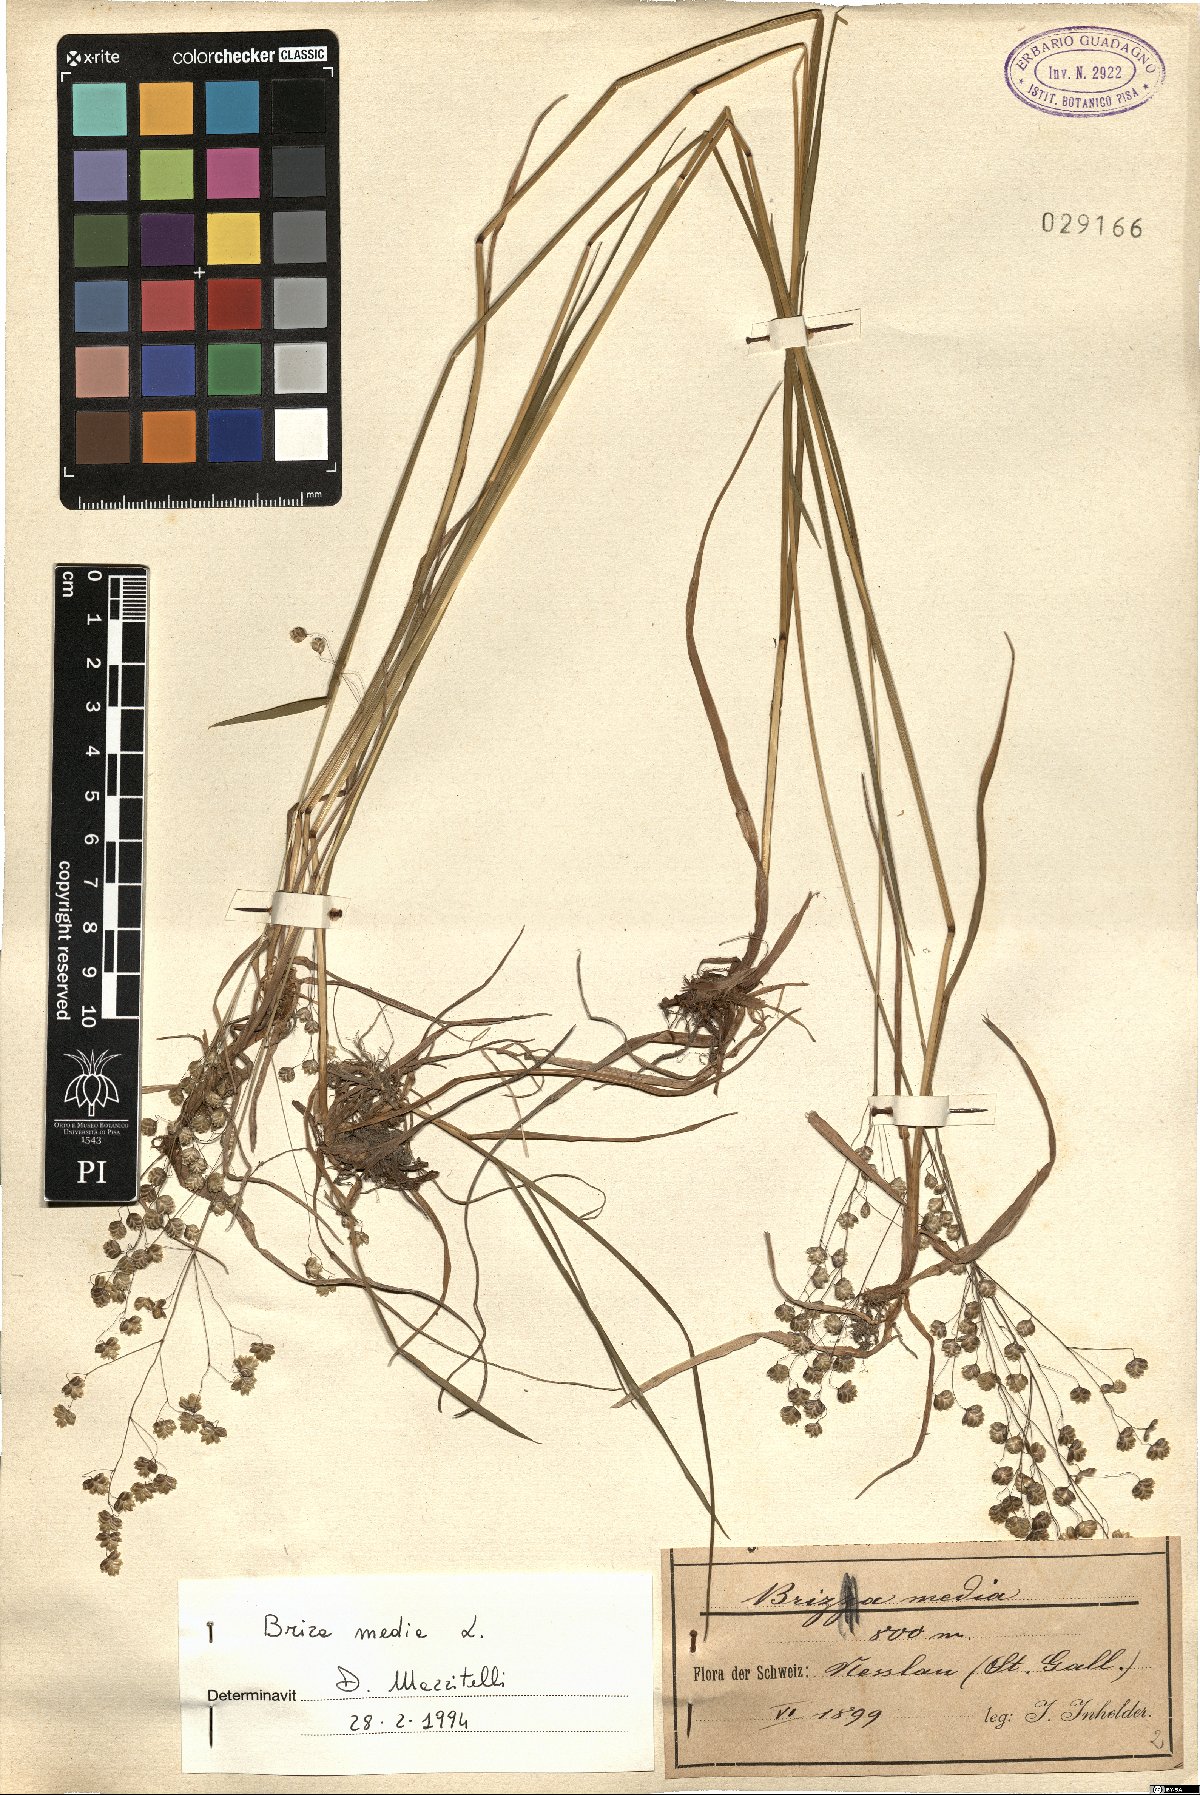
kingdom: Plantae
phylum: Tracheophyta
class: Liliopsida
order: Poales
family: Poaceae
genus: Briza
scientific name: Briza media
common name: Quaking grass
